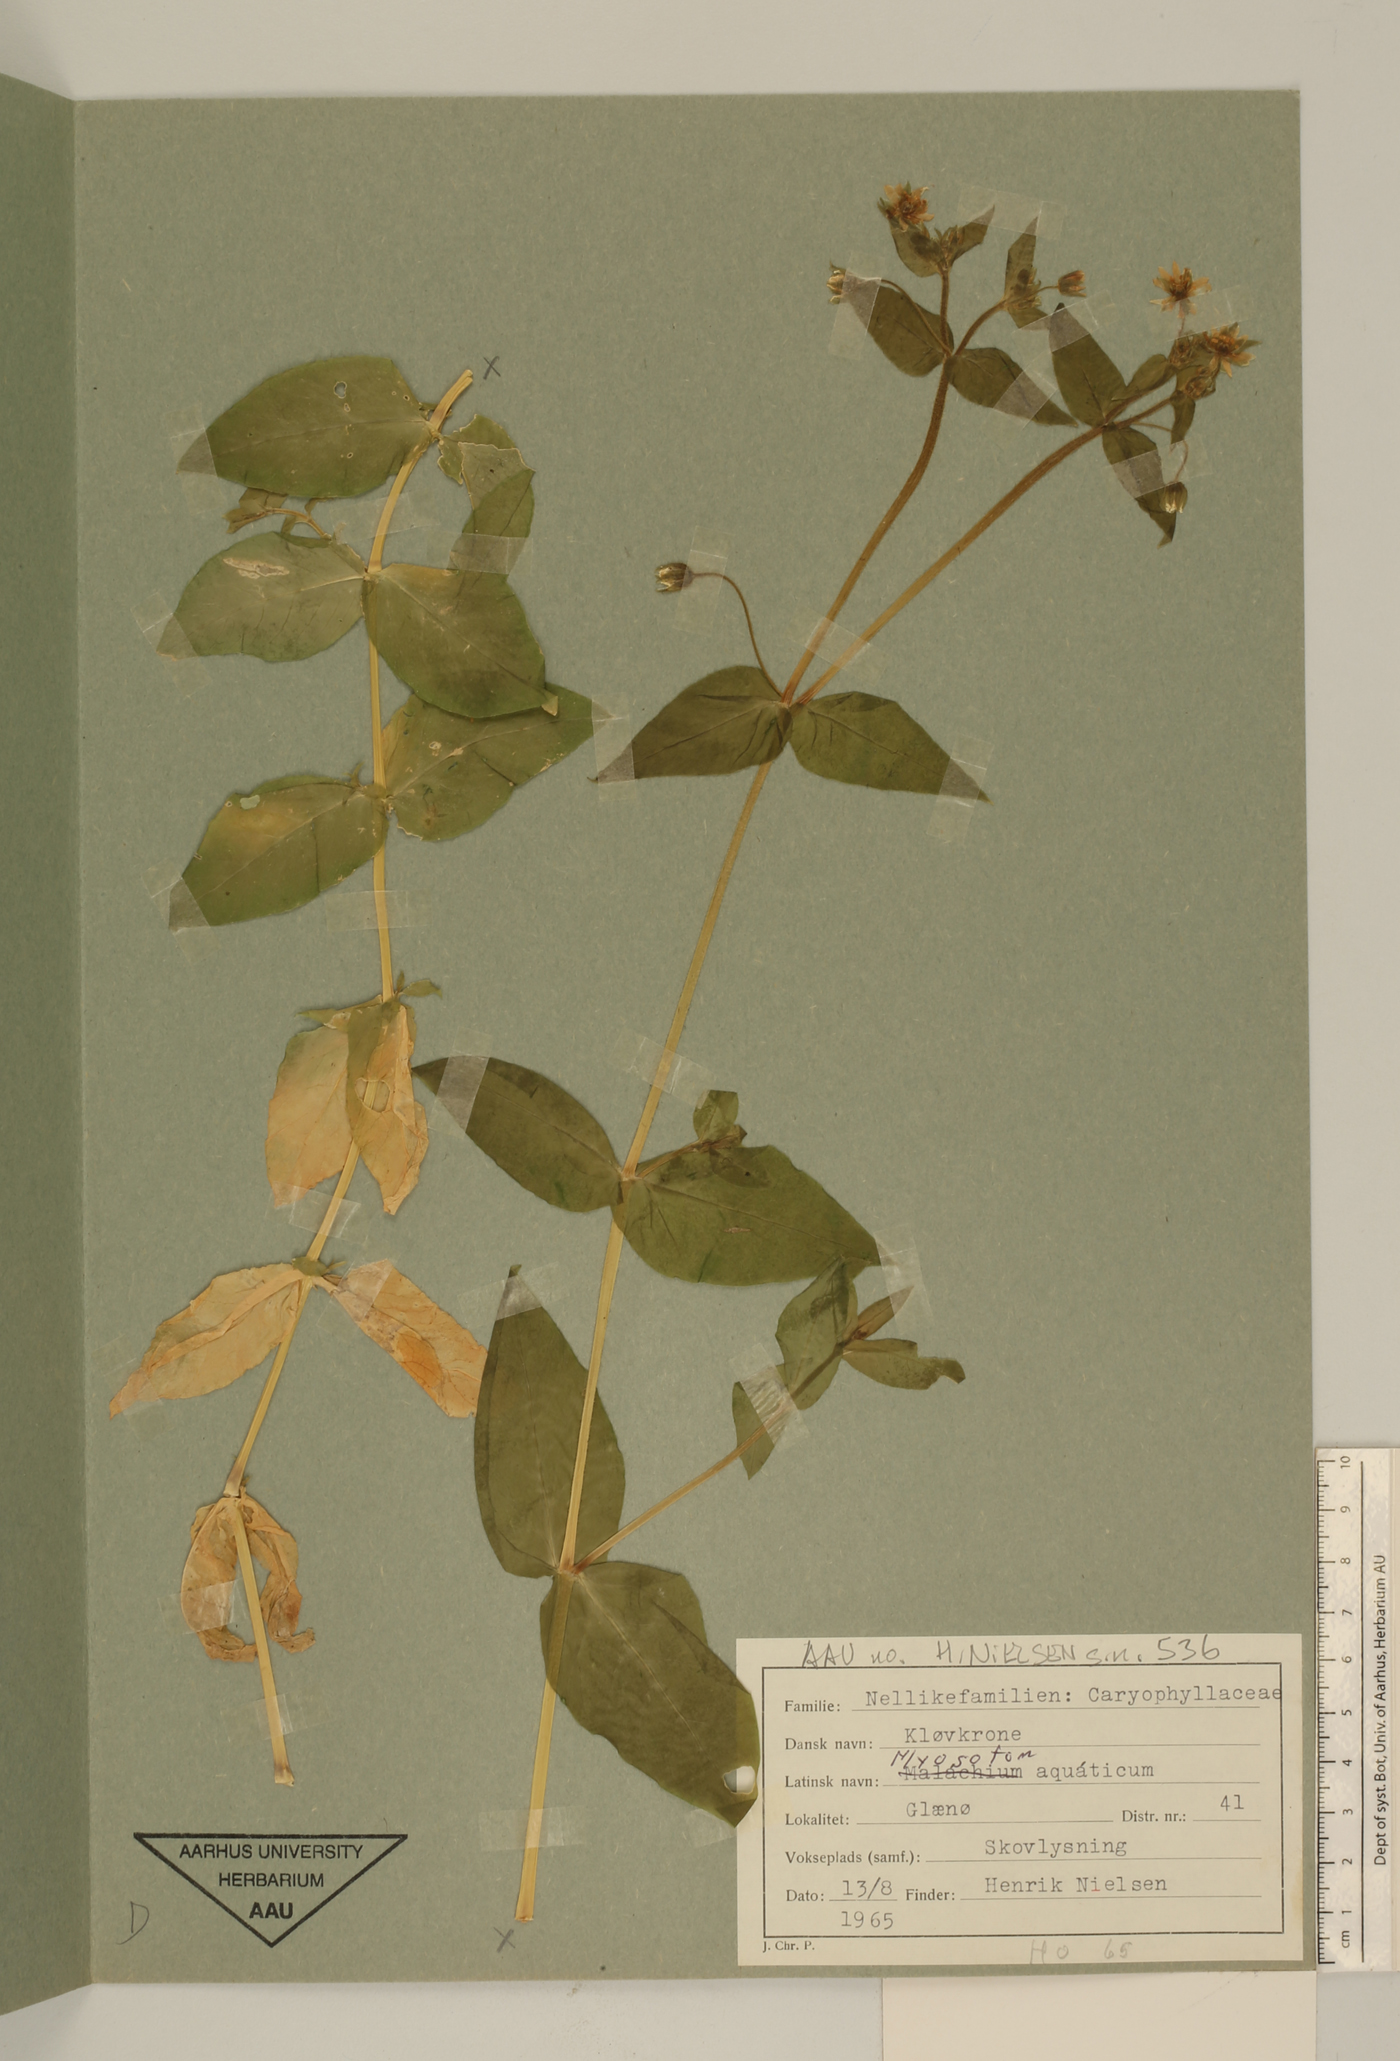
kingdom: Plantae
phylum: Tracheophyta
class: Magnoliopsida
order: Caryophyllales
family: Caryophyllaceae
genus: Stellaria
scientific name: Stellaria aquatica
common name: Water chickweed
